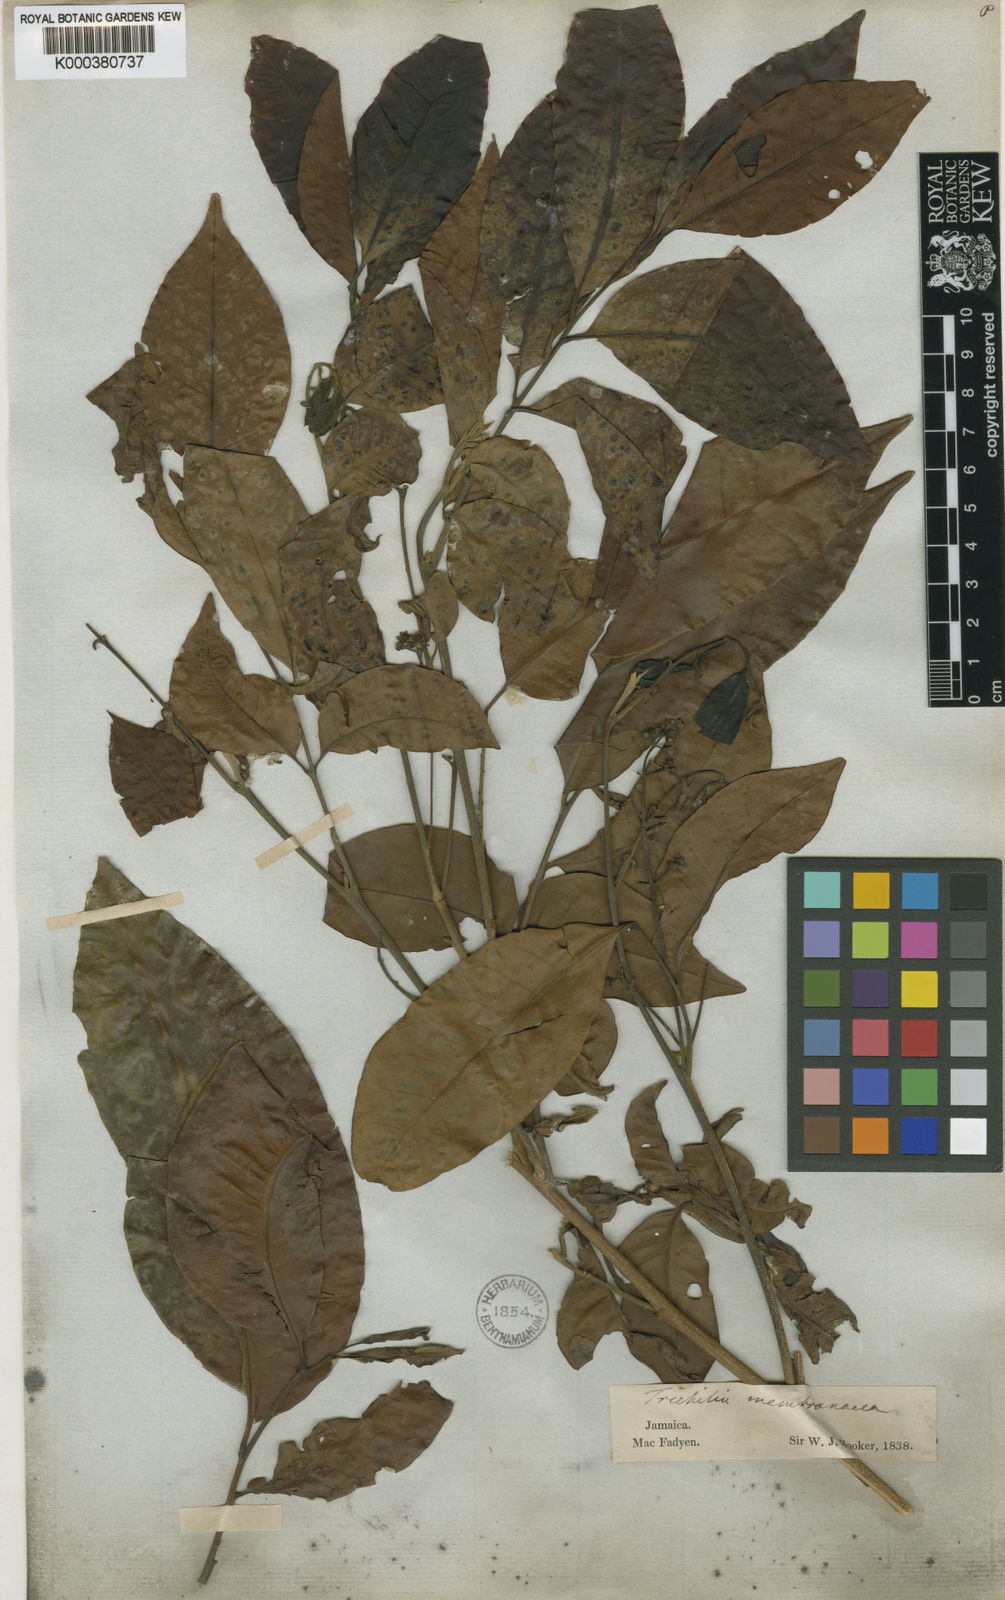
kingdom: Plantae
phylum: Tracheophyta
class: Magnoliopsida
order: Sapindales
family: Meliaceae
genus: Trichilia
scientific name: Trichilia moschata
